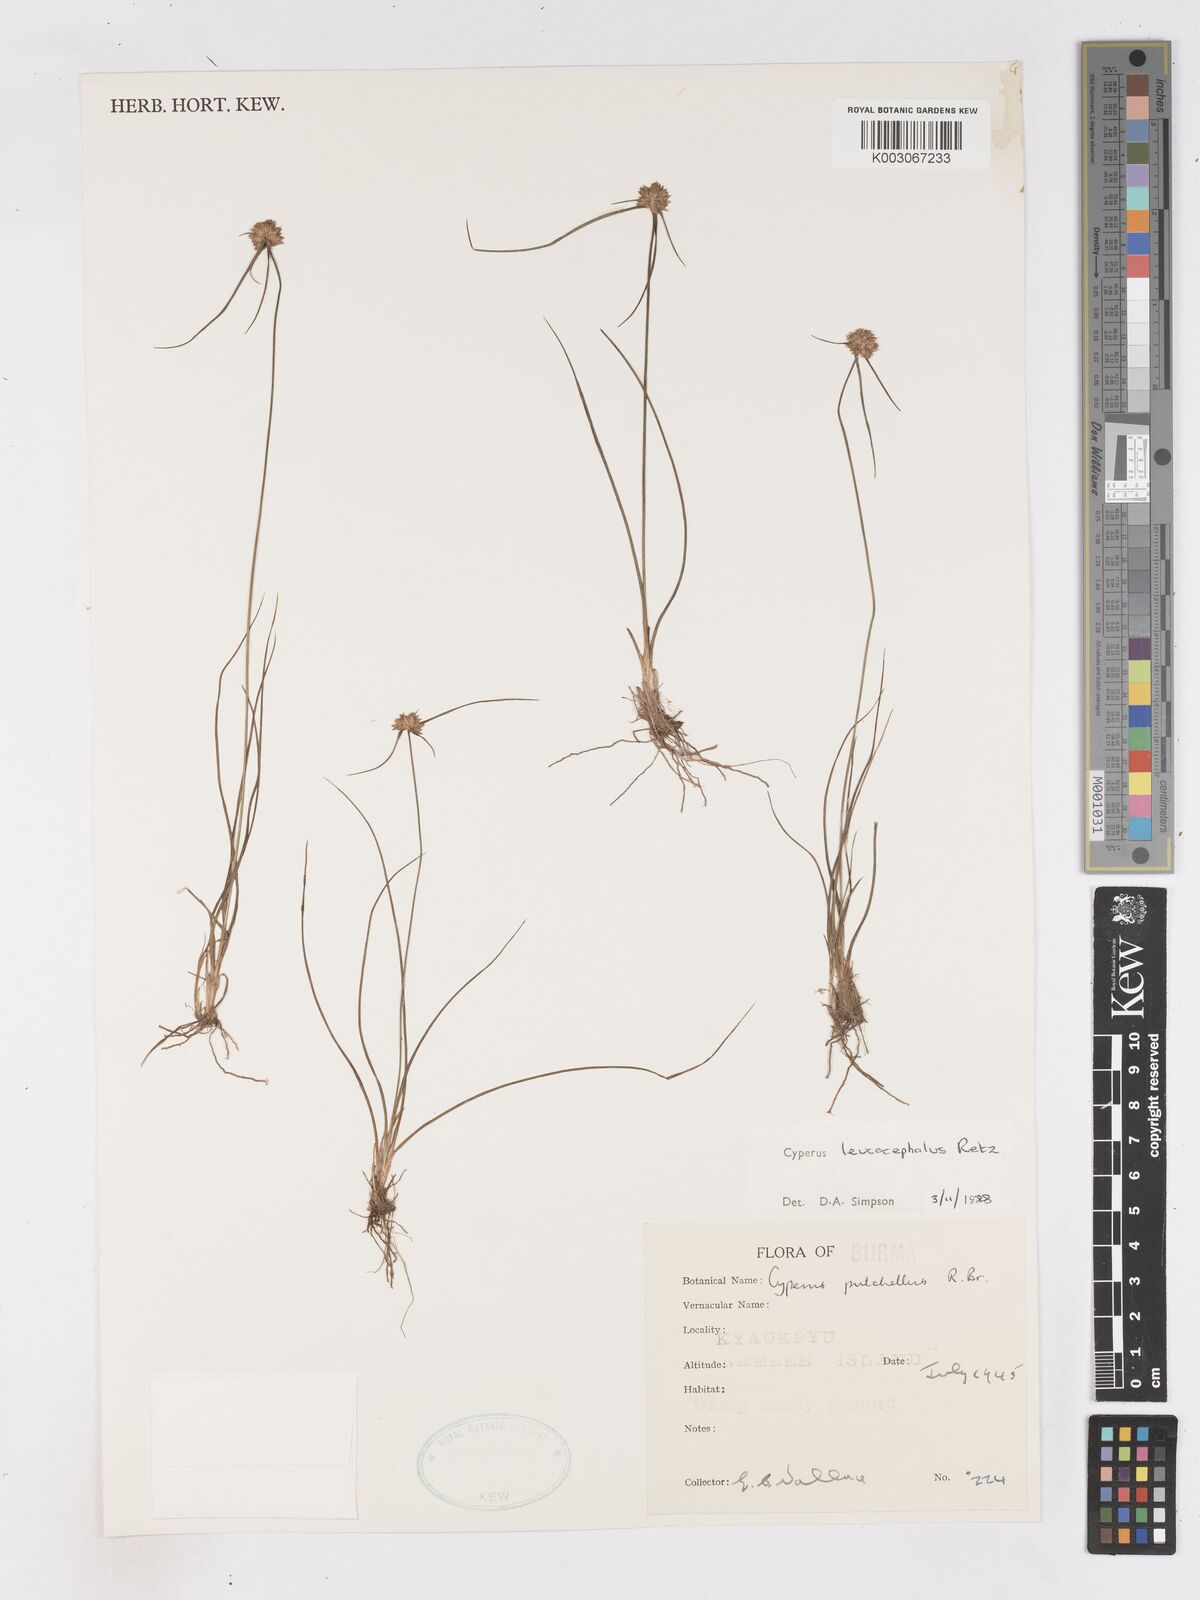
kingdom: Plantae
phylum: Tracheophyta
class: Liliopsida
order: Poales
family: Cyperaceae
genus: Cyperus
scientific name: Cyperus leucocephalus
